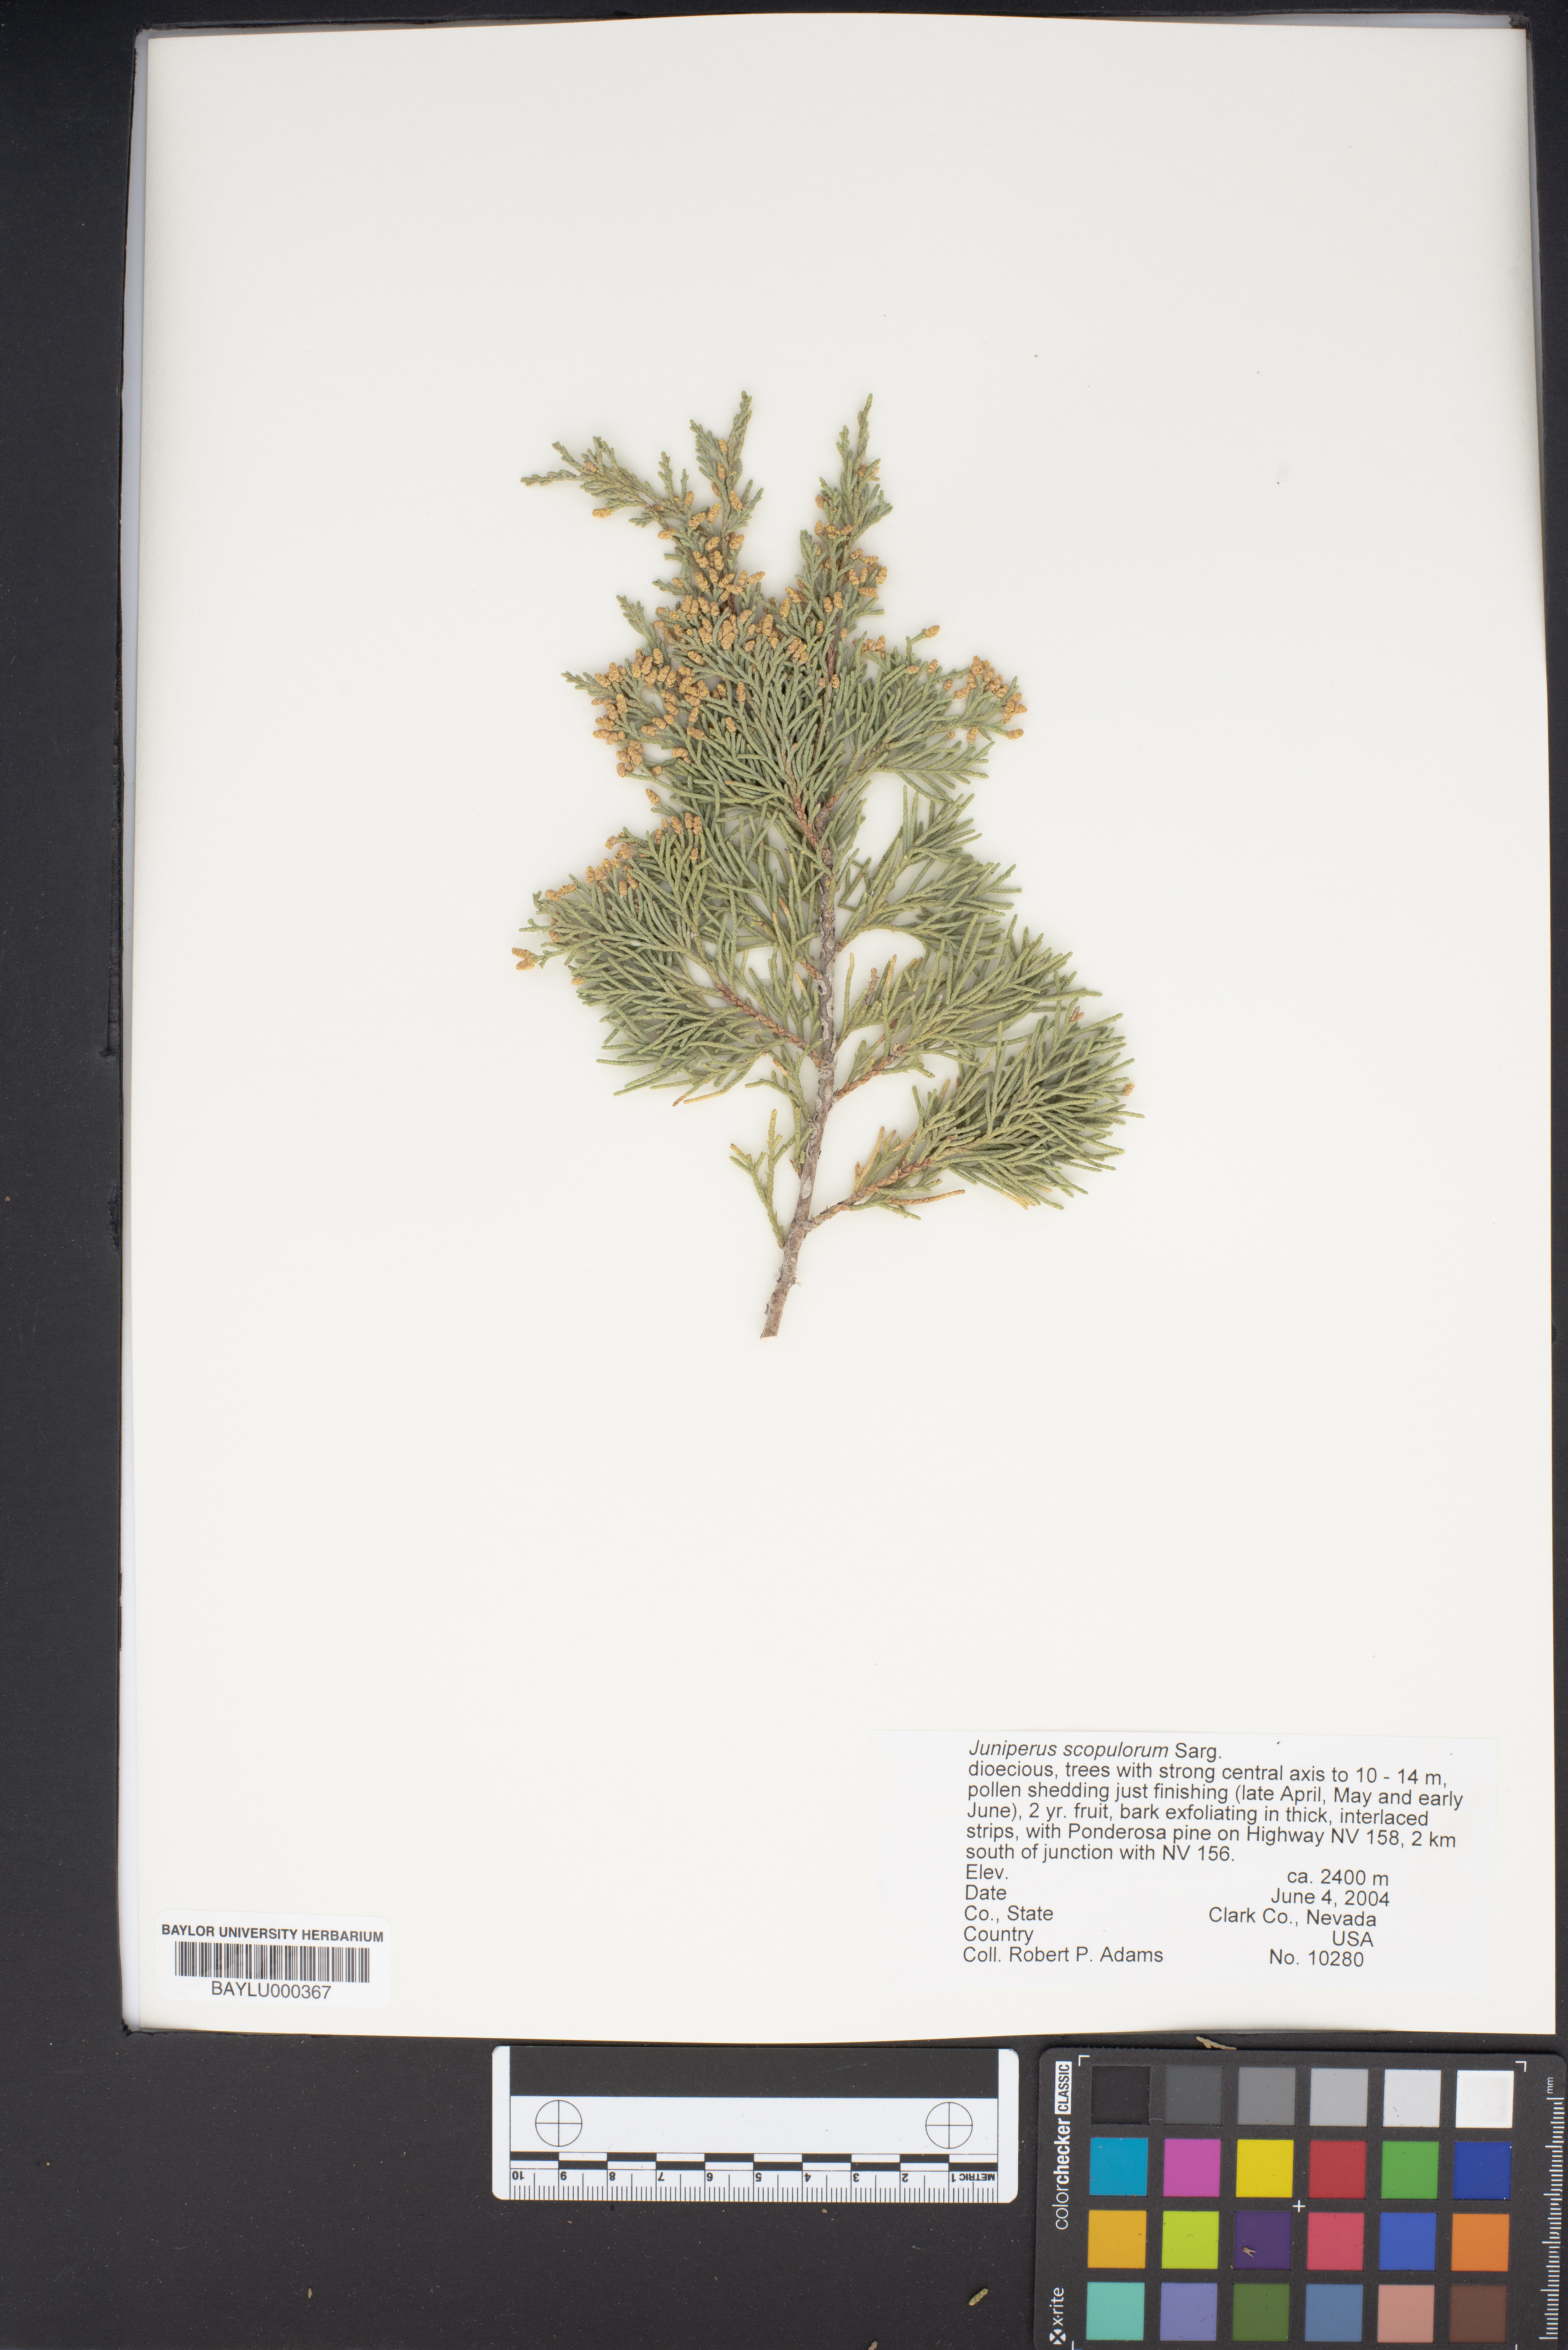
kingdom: Plantae
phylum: Tracheophyta
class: Pinopsida
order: Pinales
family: Cupressaceae
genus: Juniperus
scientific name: Juniperus scopulorum
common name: Rocky mountain juniper
